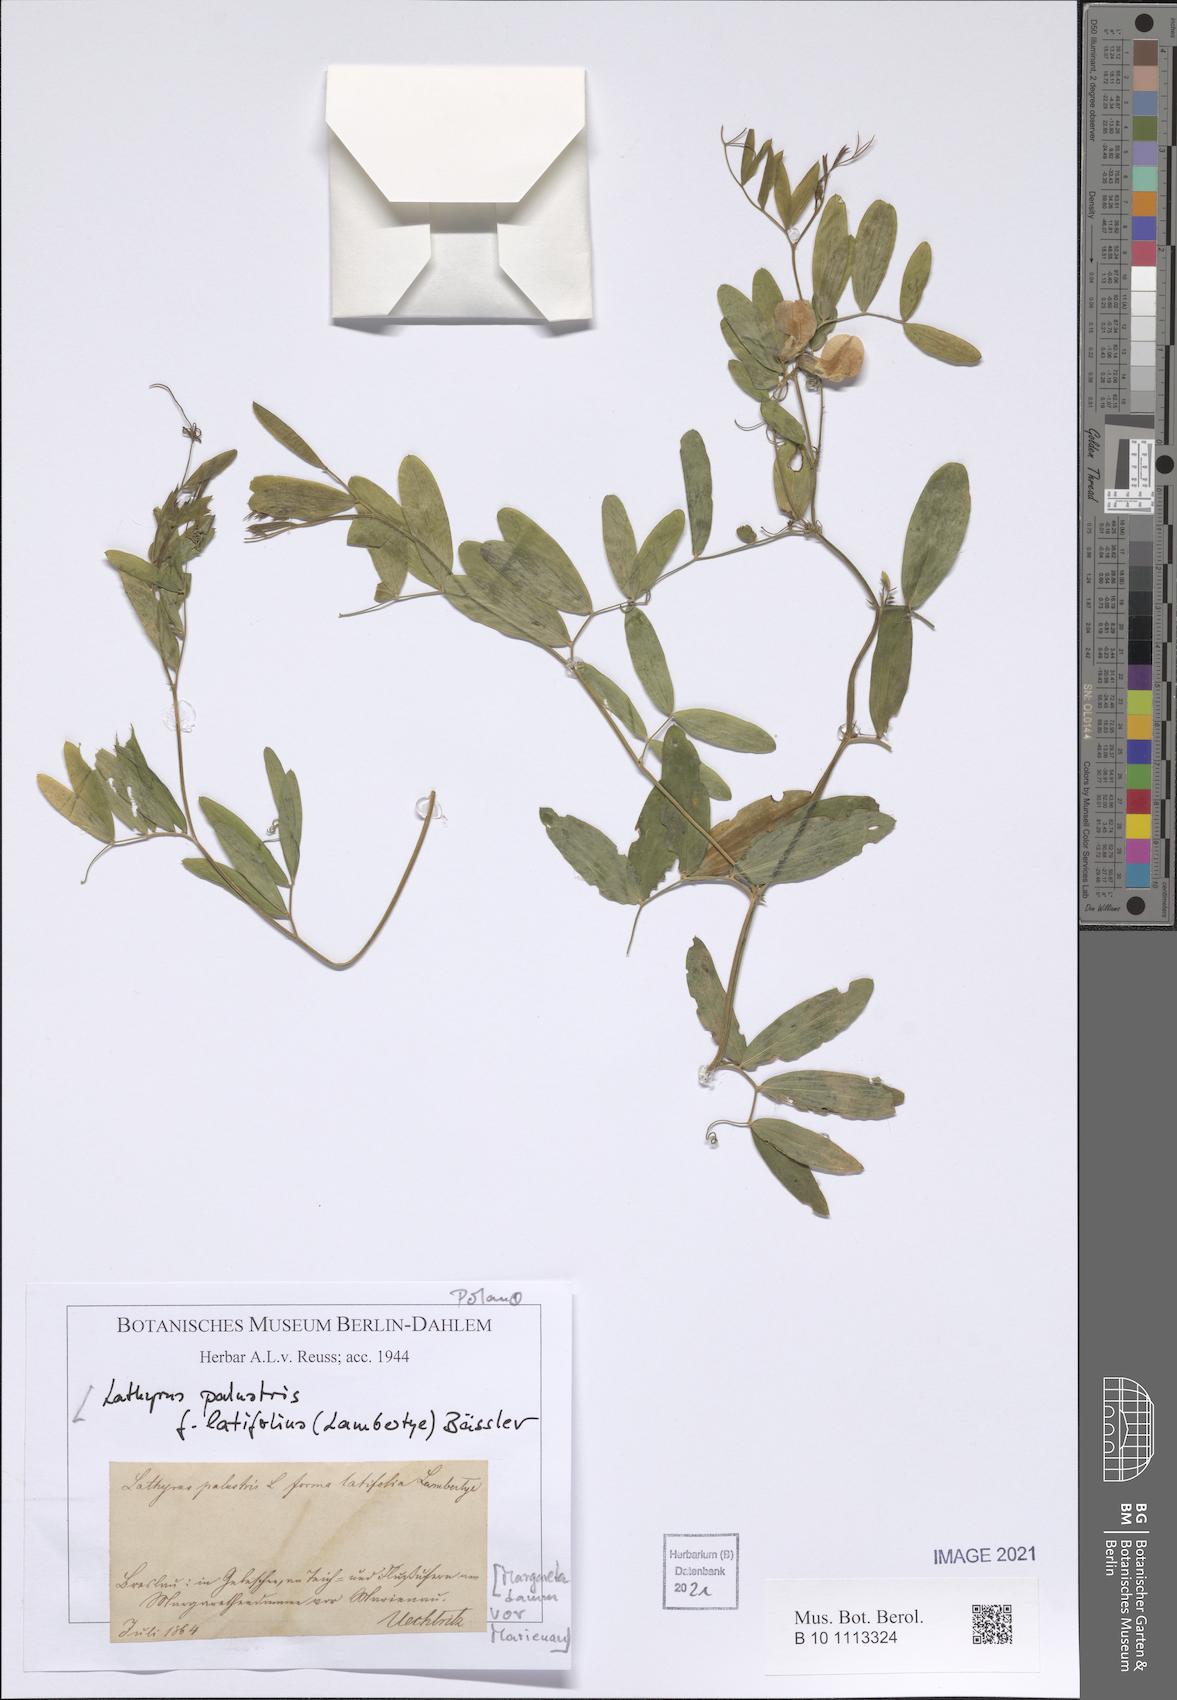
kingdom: Plantae
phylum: Tracheophyta
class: Magnoliopsida
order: Fabales
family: Fabaceae
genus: Lathyrus
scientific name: Lathyrus palustris
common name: Marsh pea
